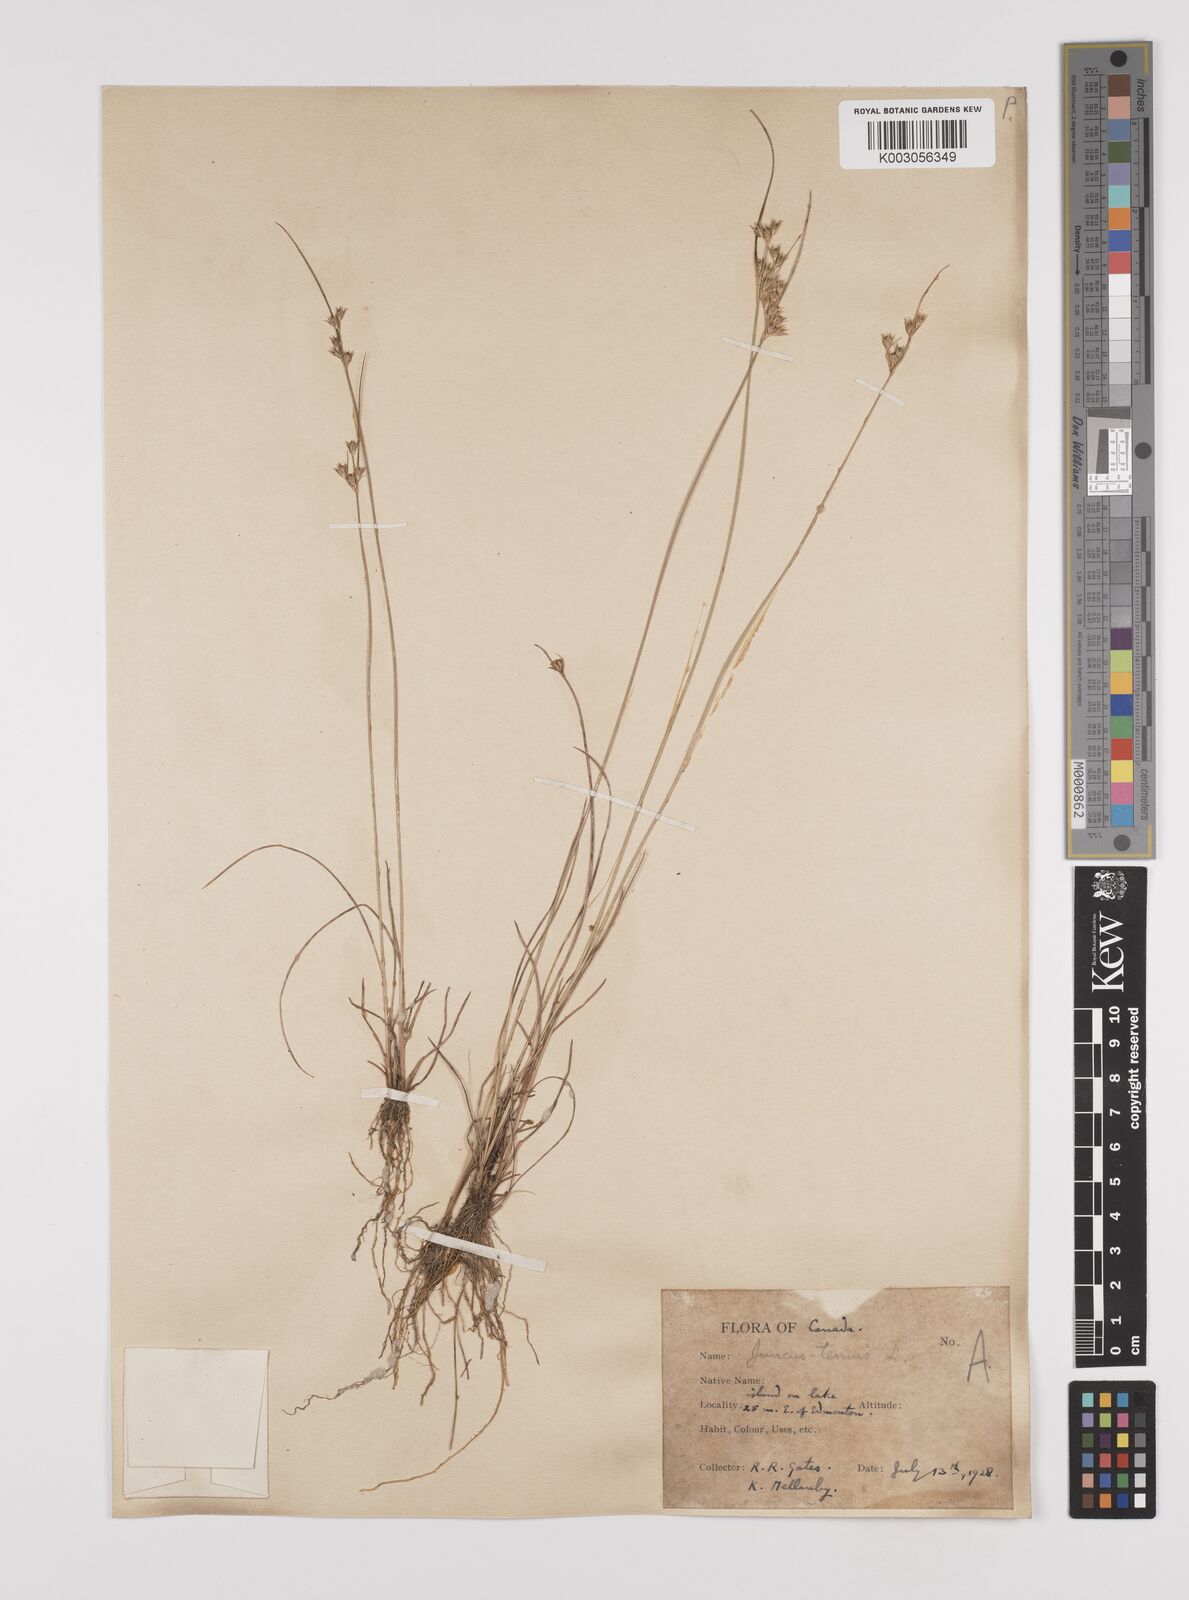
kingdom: Plantae
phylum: Tracheophyta
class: Liliopsida
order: Poales
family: Juncaceae
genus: Juncus
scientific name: Juncus tenuis
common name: Slender rush
